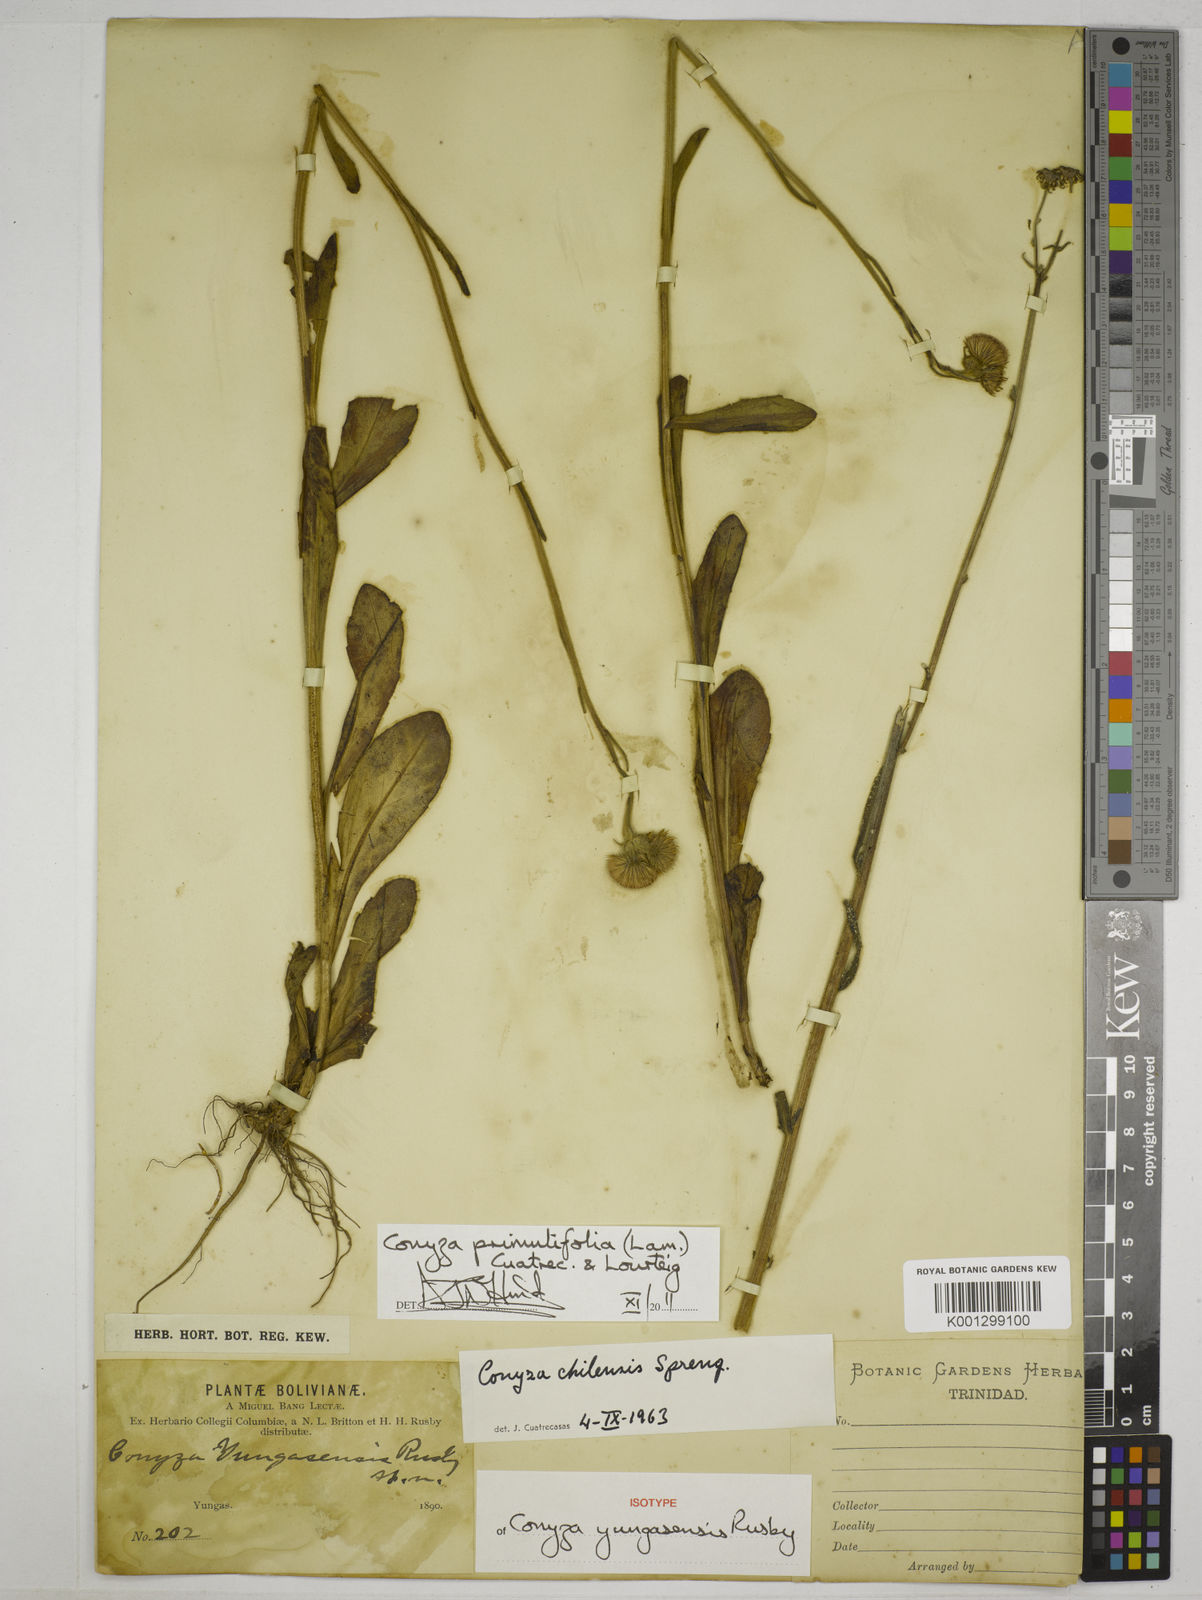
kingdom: Plantae
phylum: Tracheophyta
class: Magnoliopsida
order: Asterales
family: Asteraceae
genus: Erigeron
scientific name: Erigeron primulifolius
